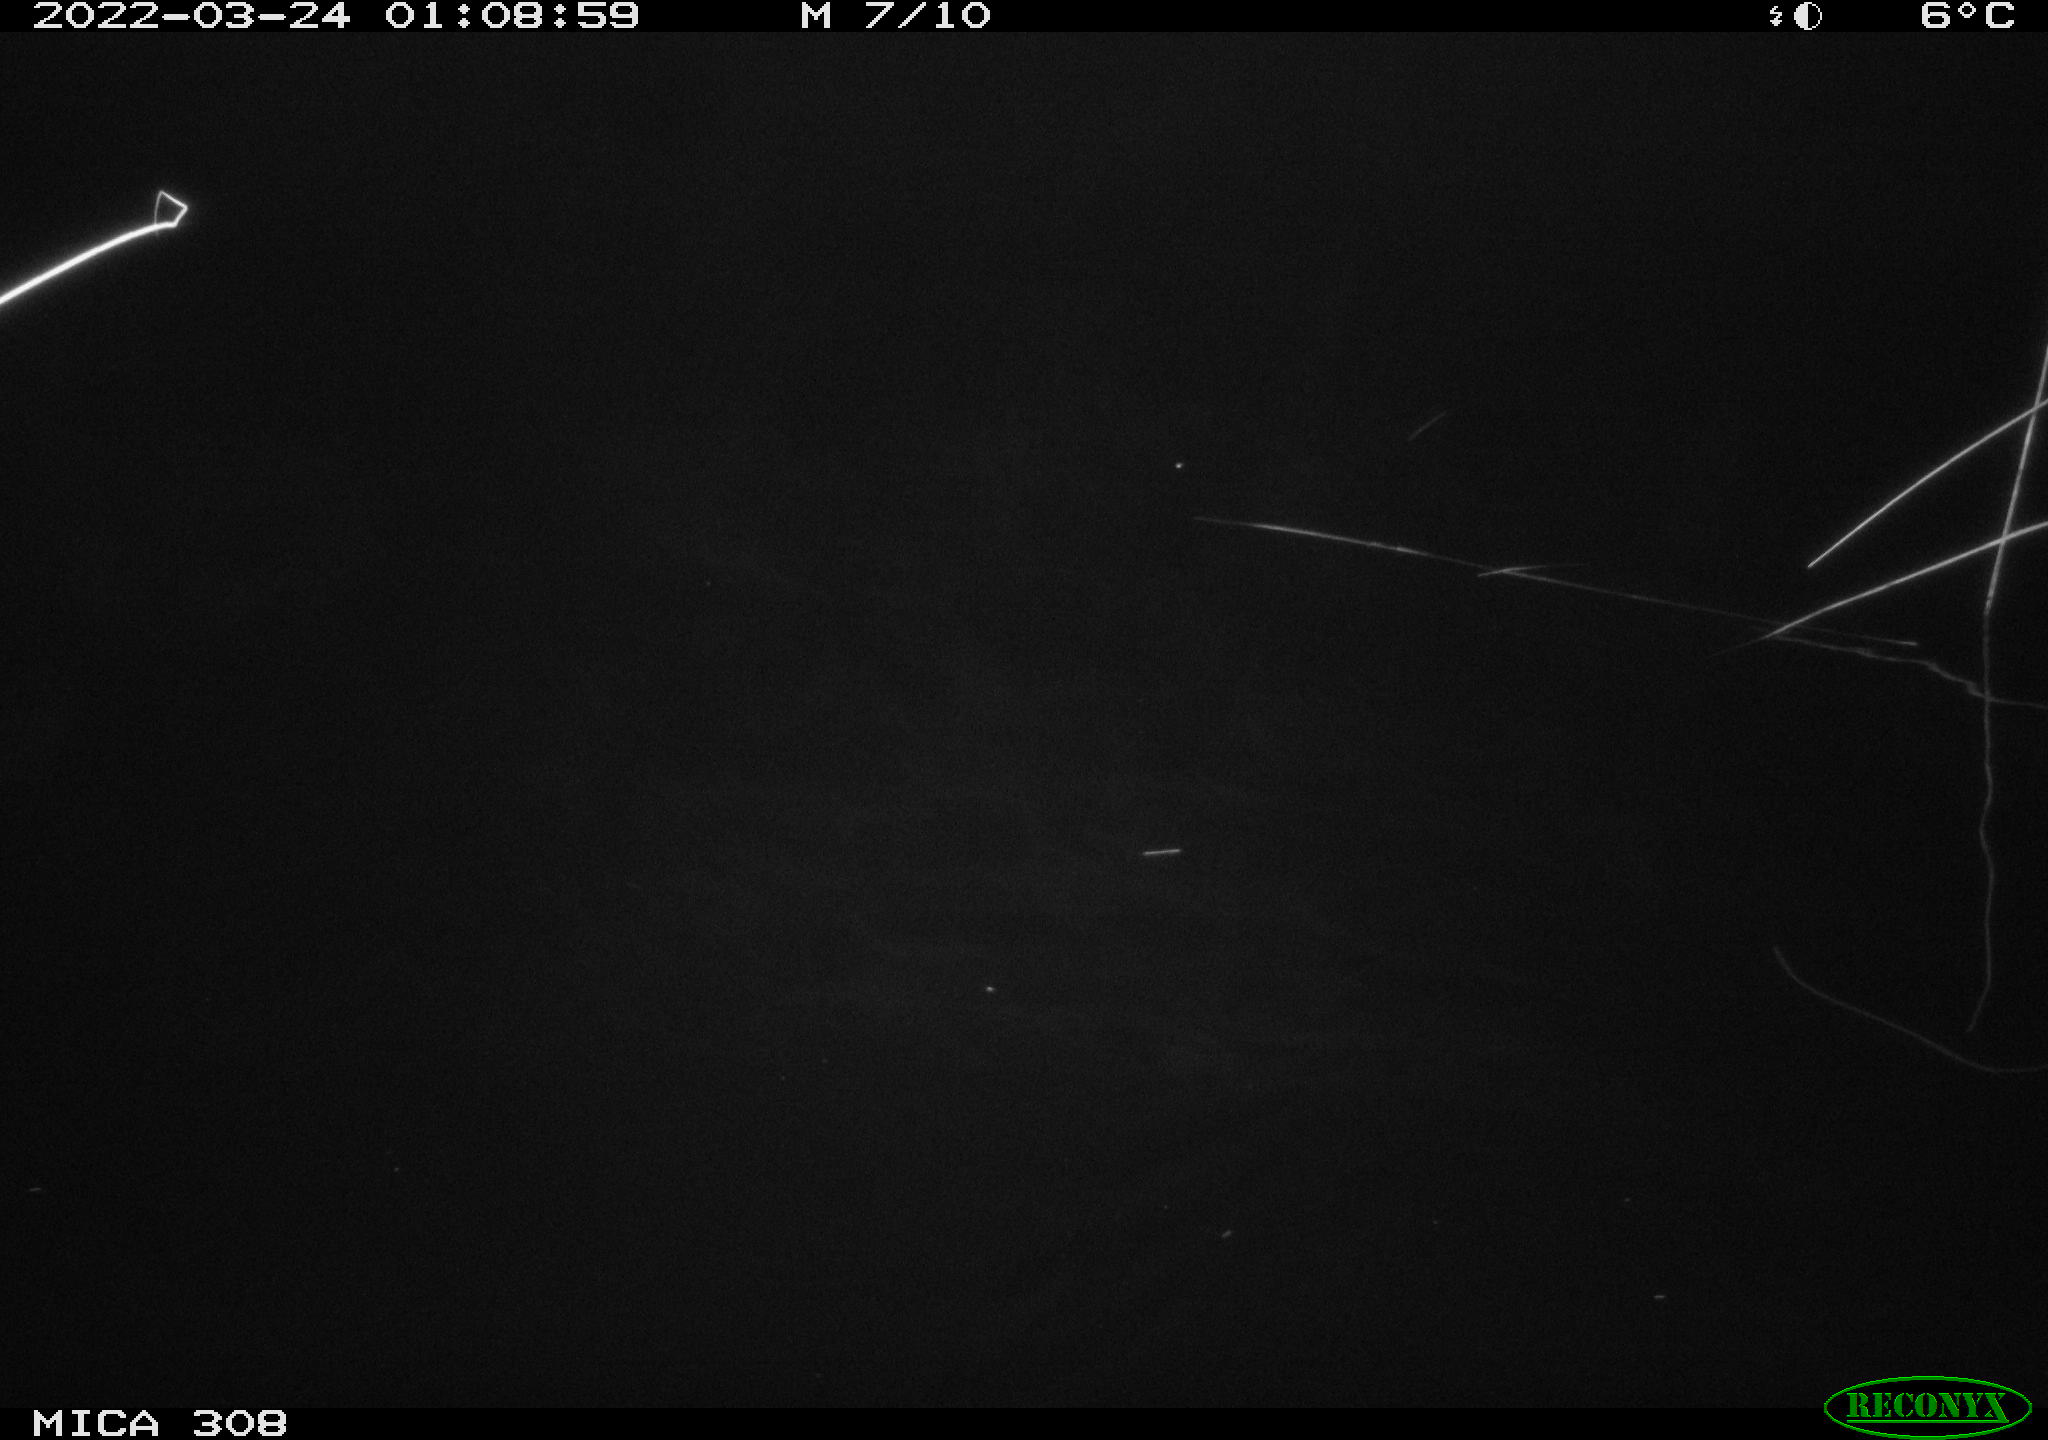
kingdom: Animalia
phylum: Chordata
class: Aves
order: Anseriformes
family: Anatidae
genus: Anas
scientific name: Anas platyrhynchos
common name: Mallard
